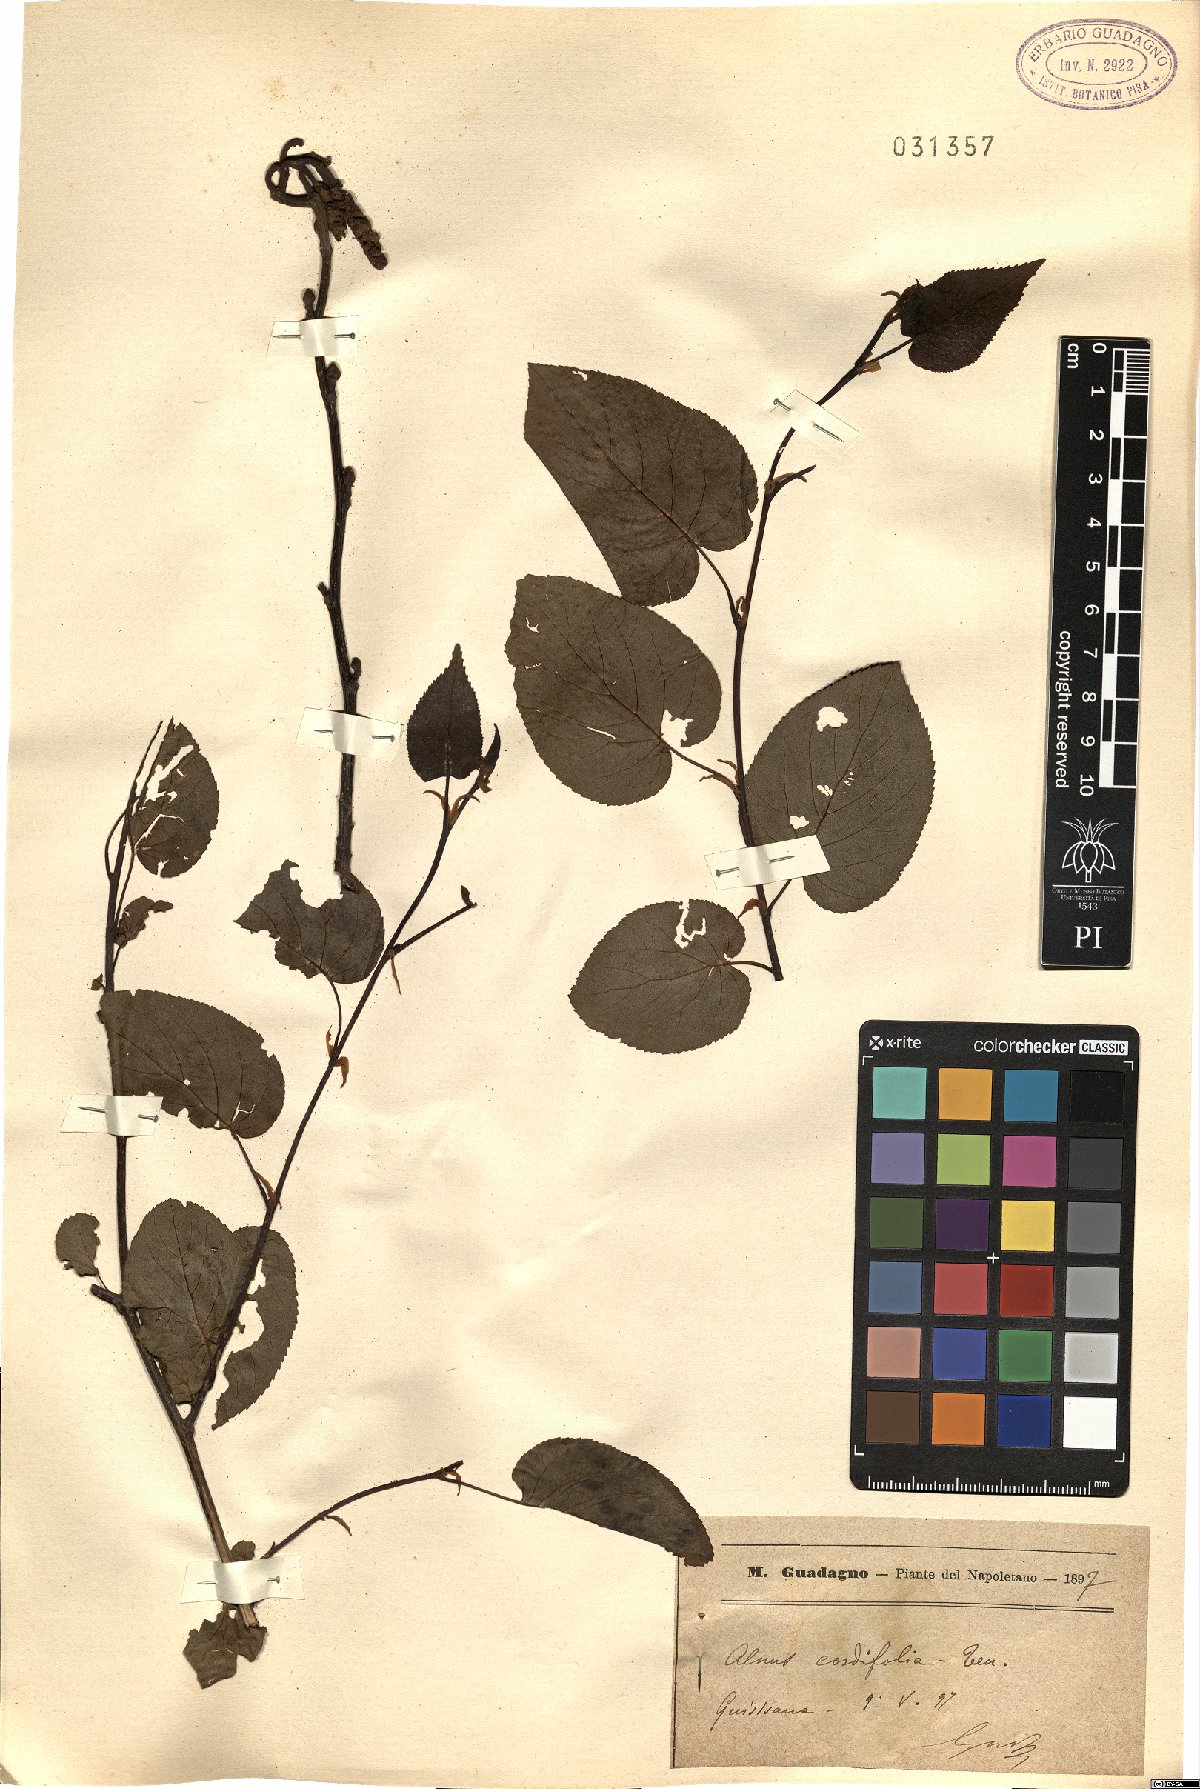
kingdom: Plantae
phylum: Tracheophyta
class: Magnoliopsida
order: Fagales
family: Betulaceae
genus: Alnus
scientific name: Alnus cordata
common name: Italian alder
